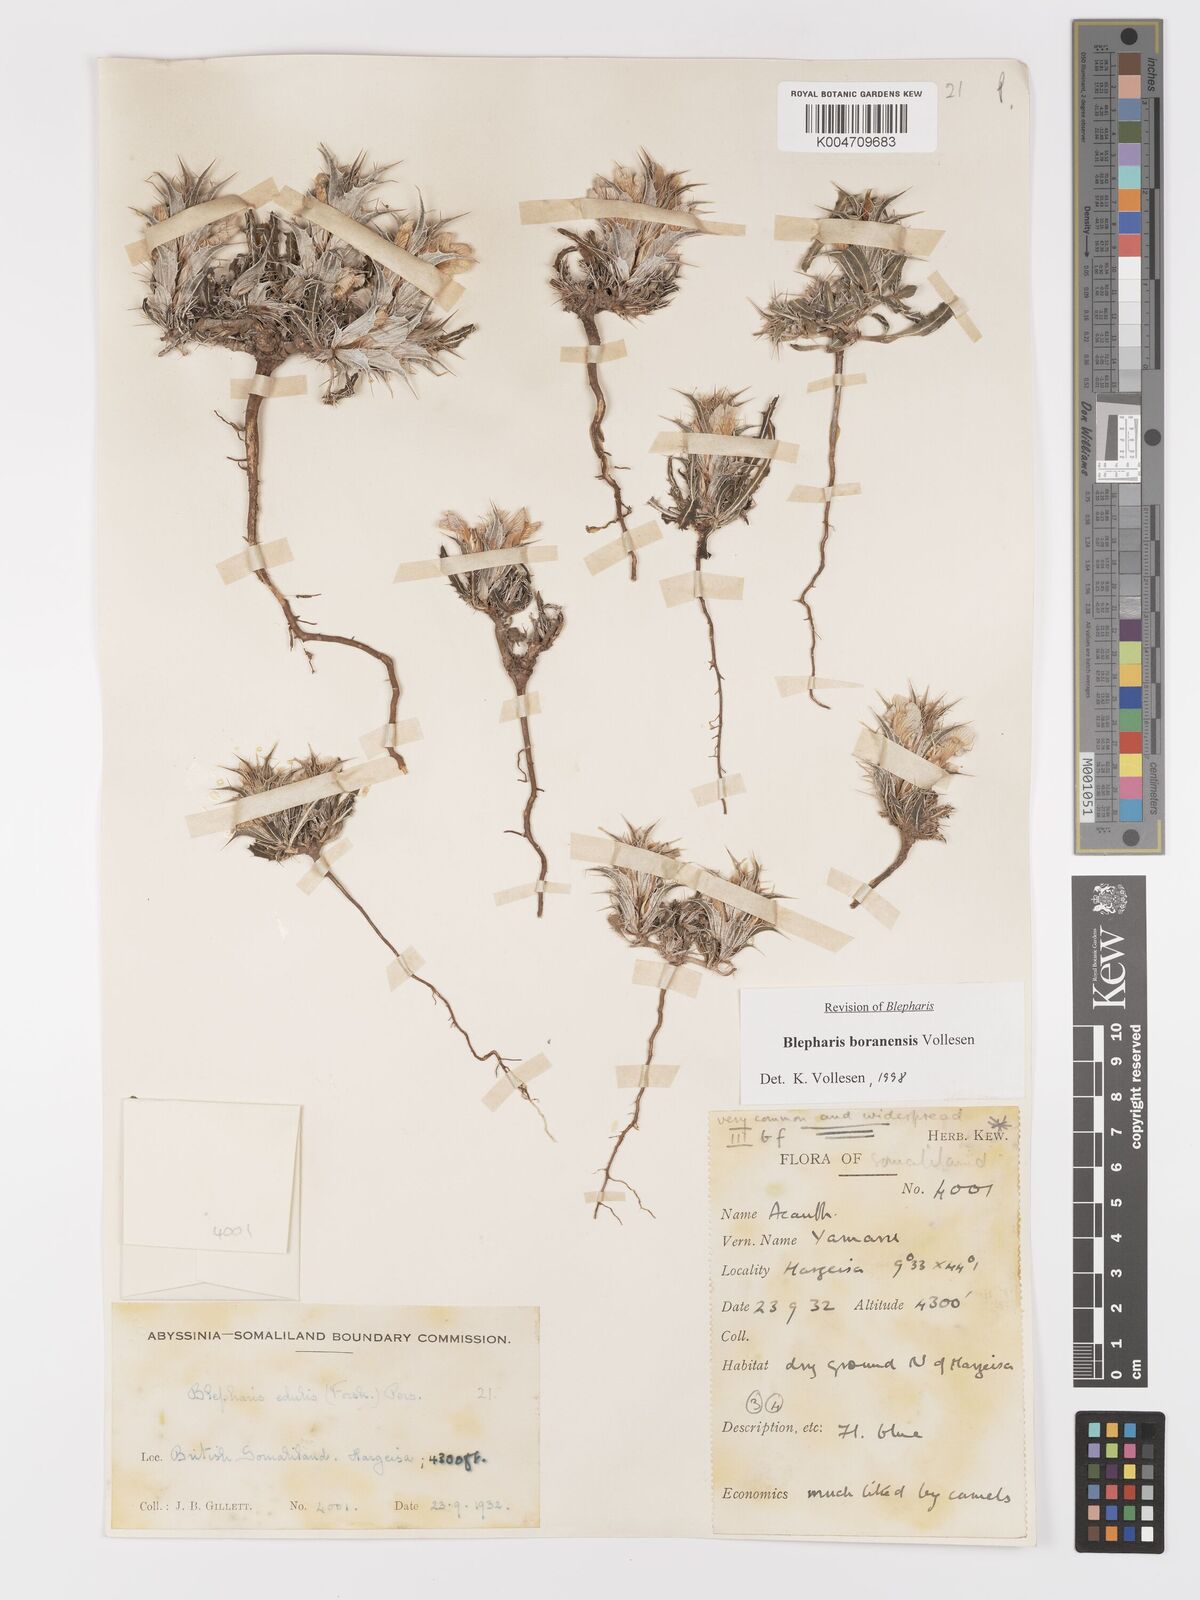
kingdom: Plantae
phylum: Tracheophyta
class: Magnoliopsida
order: Lamiales
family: Acanthaceae
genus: Blepharis
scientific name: Blepharis boranensis
